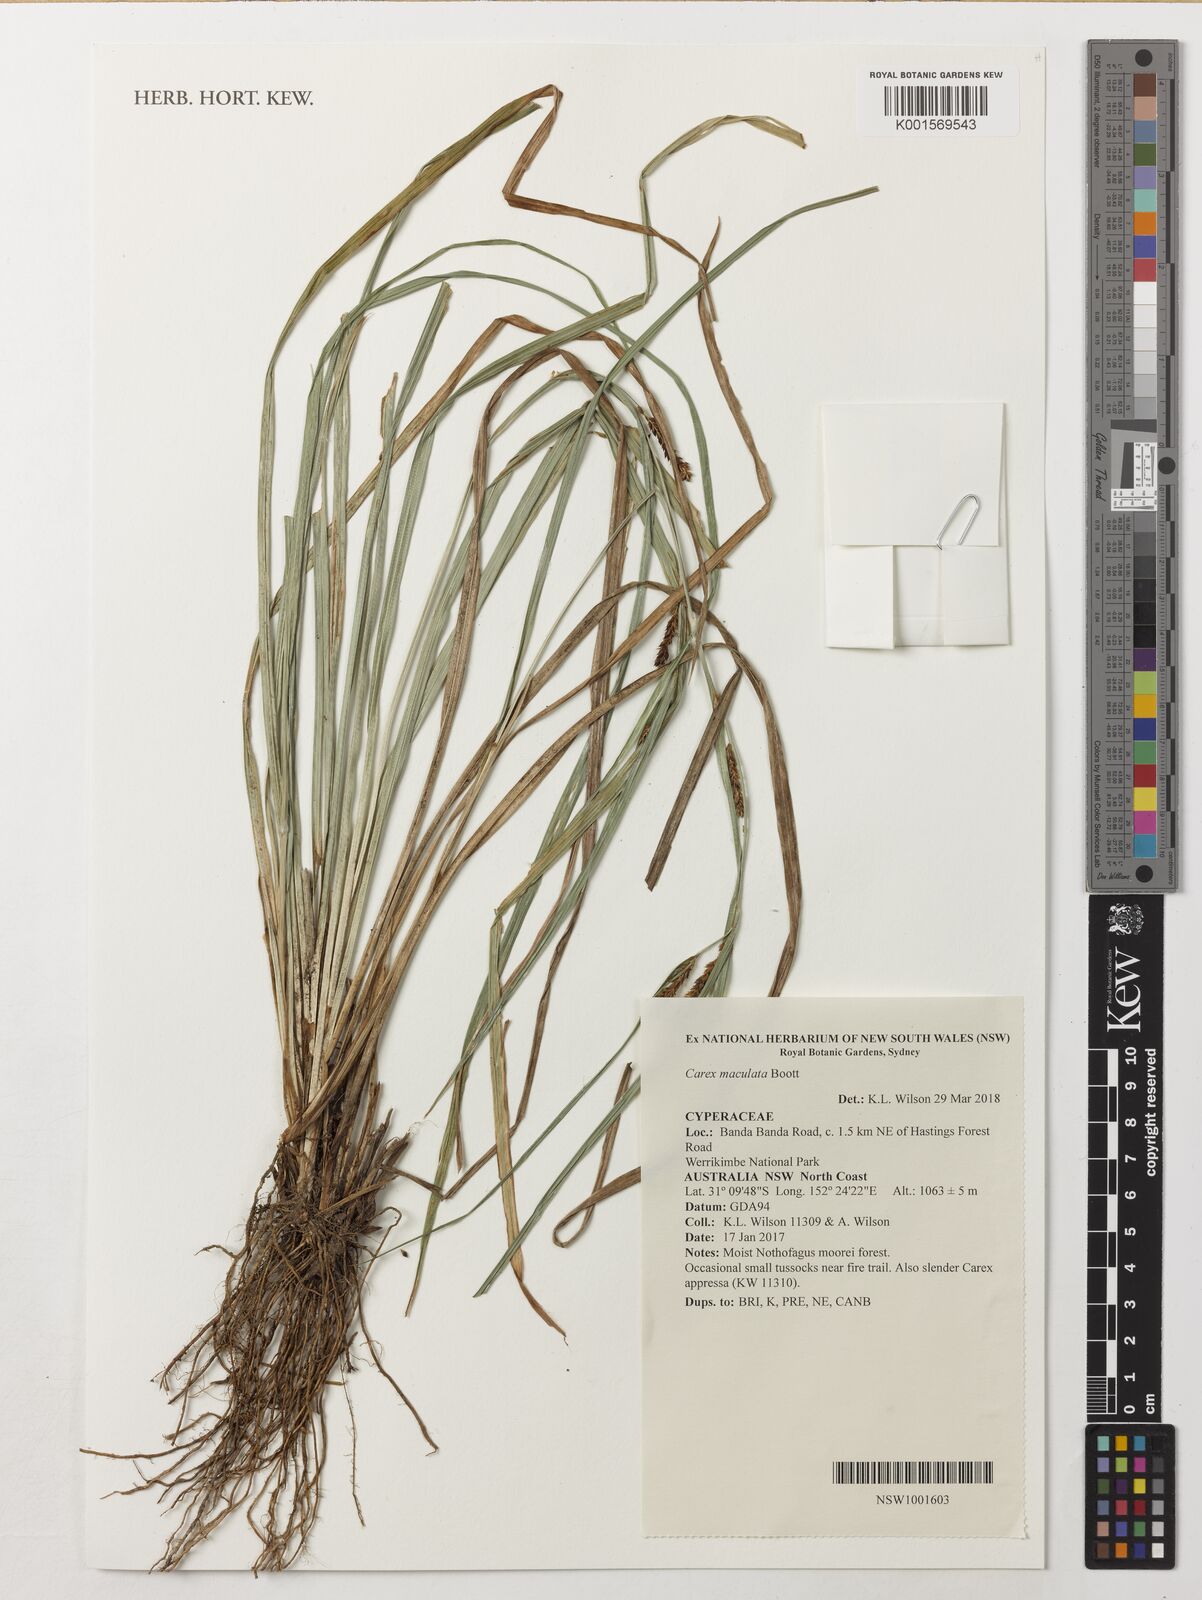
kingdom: Plantae
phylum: Tracheophyta
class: Liliopsida
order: Poales
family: Cyperaceae
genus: Carex
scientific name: Carex maculata
